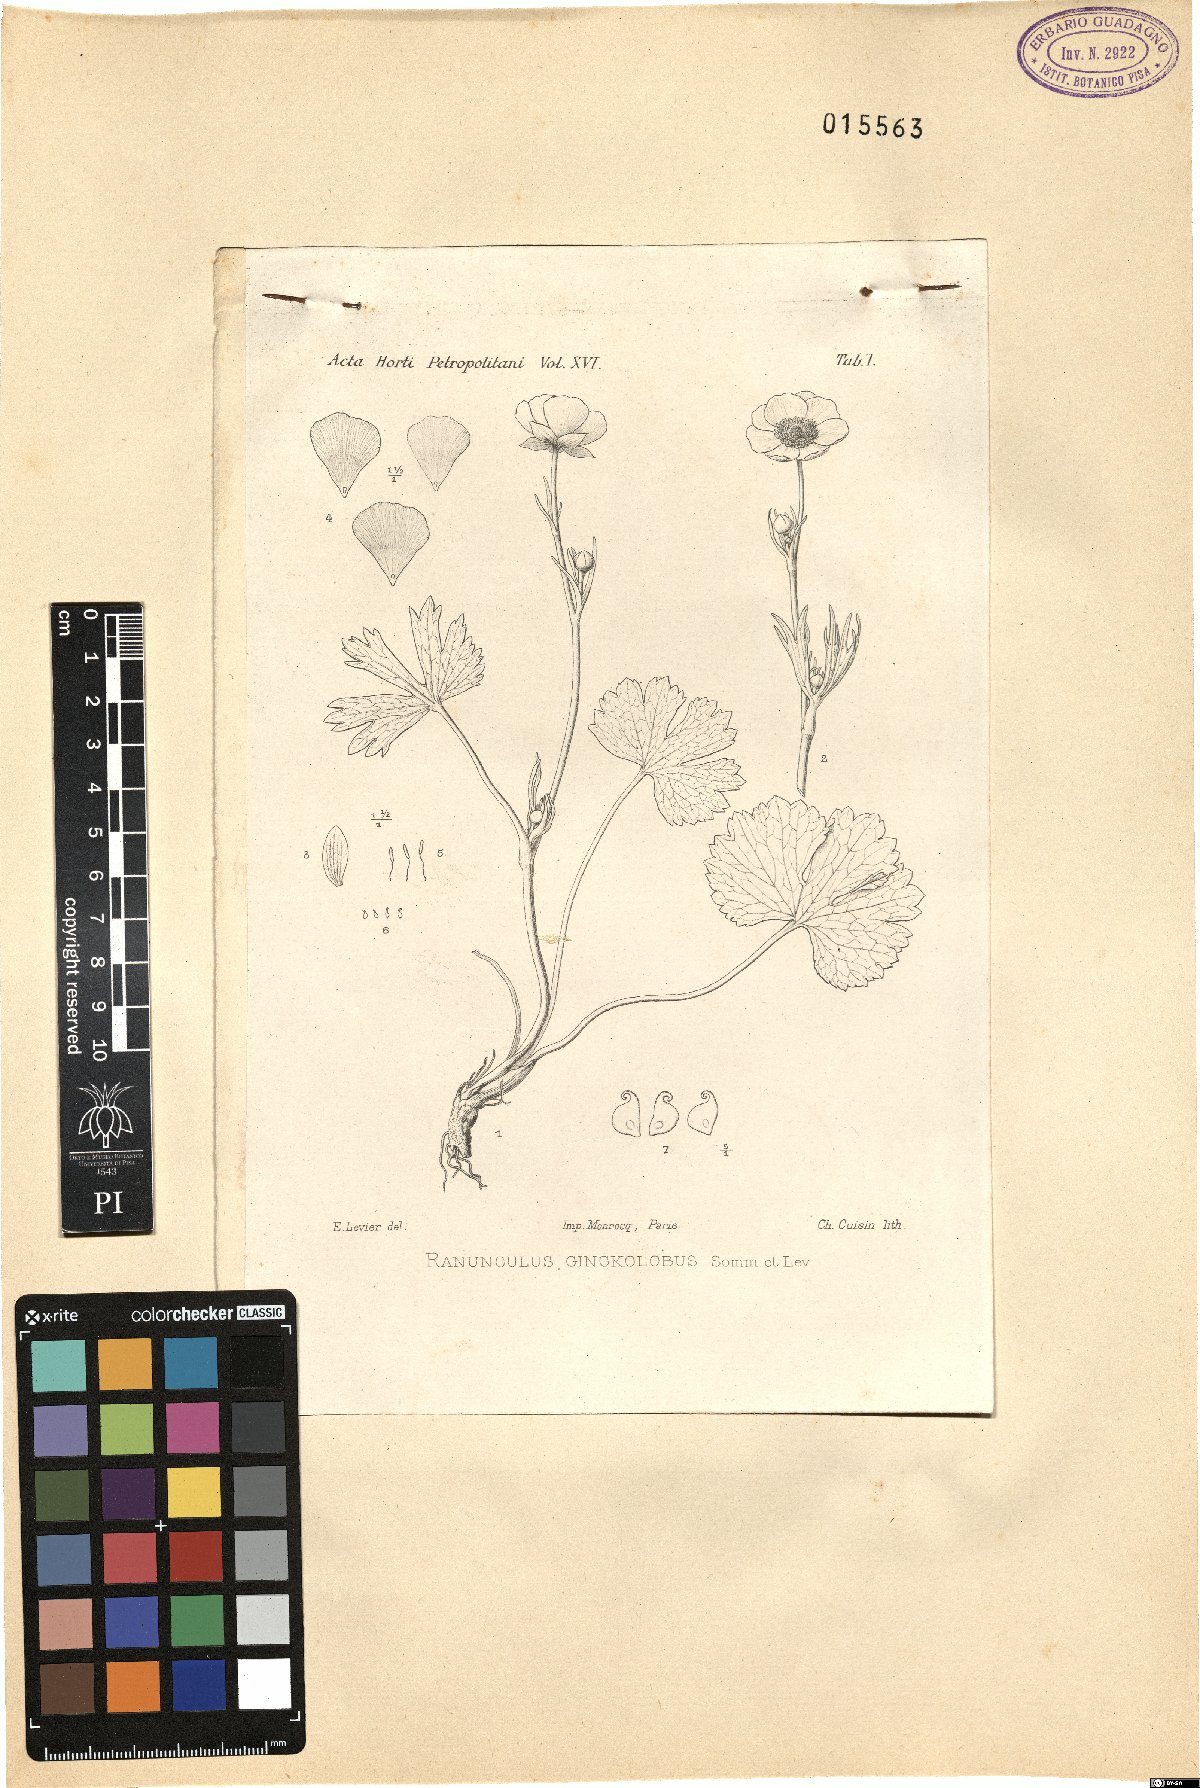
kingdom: Plantae
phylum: Tracheophyta
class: Magnoliopsida
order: Ranunculales
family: Ranunculaceae
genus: Ranunculus
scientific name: Ranunculus baidarae
